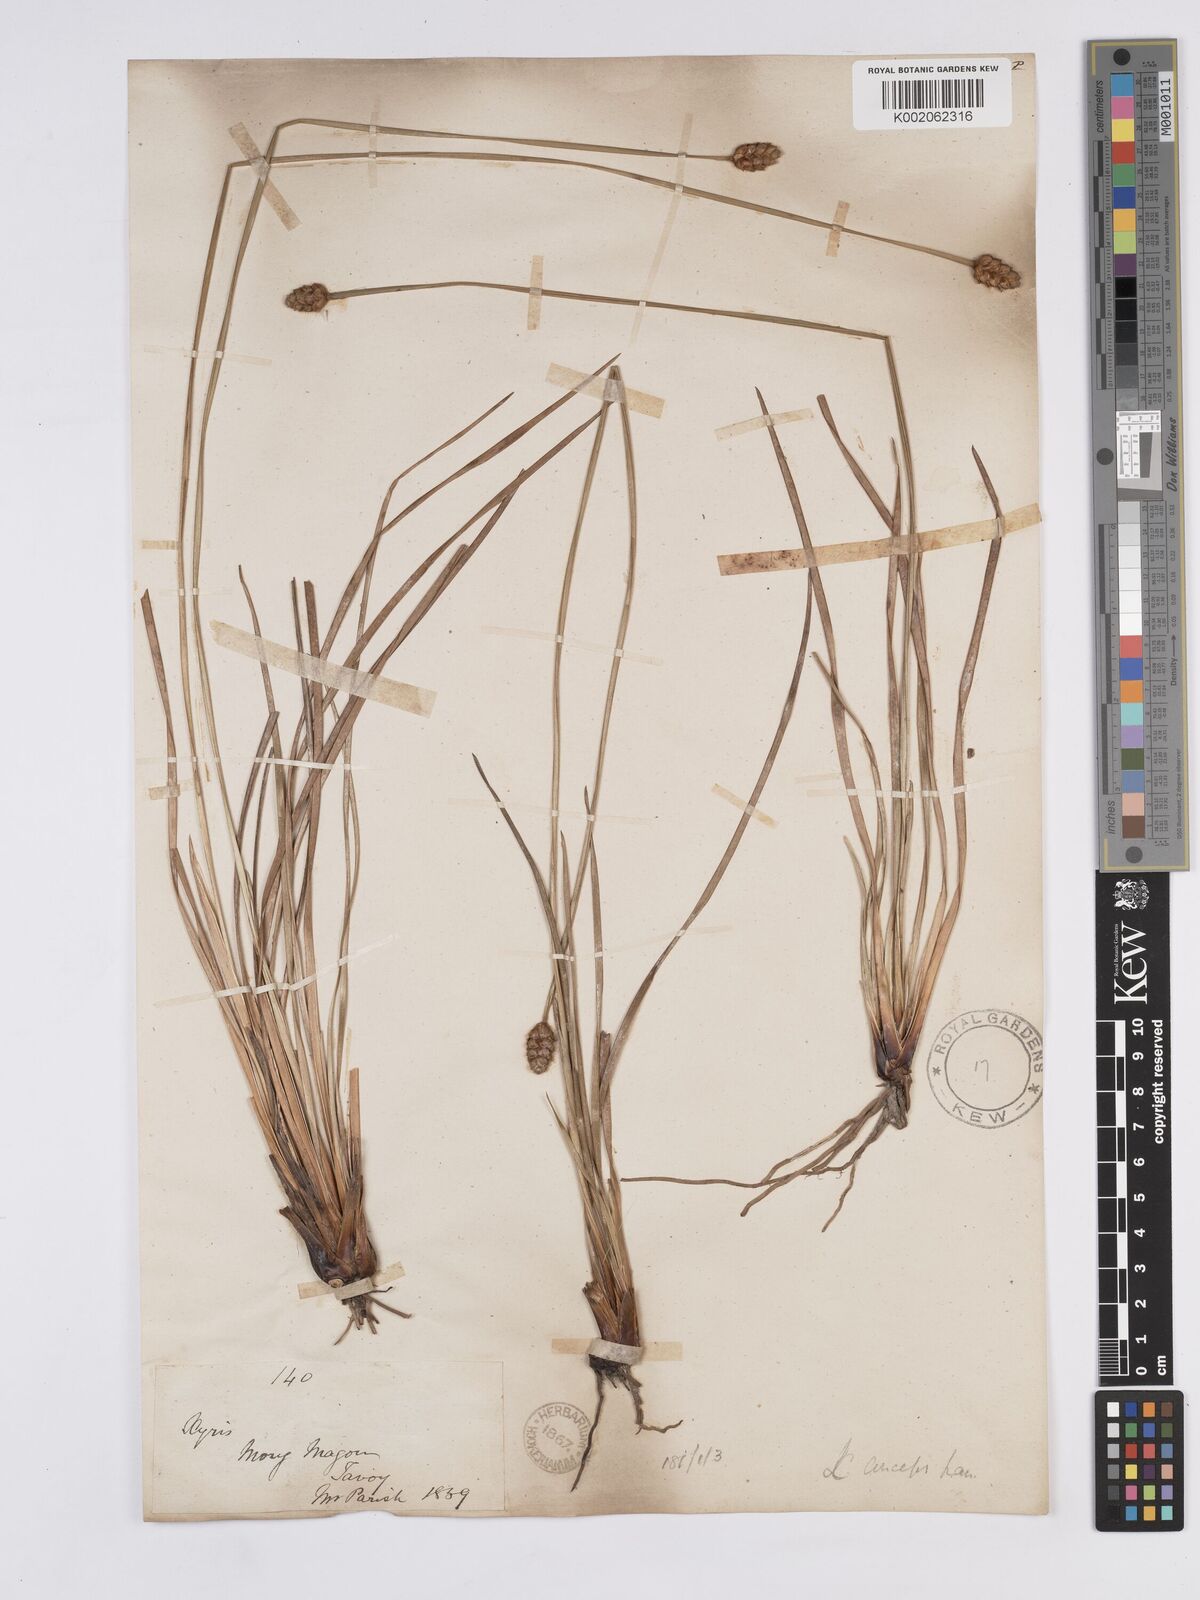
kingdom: Plantae
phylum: Tracheophyta
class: Liliopsida
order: Poales
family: Xyridaceae
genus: Xyris
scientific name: Xyris complanata
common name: Hawai'i yelloweyed grass
